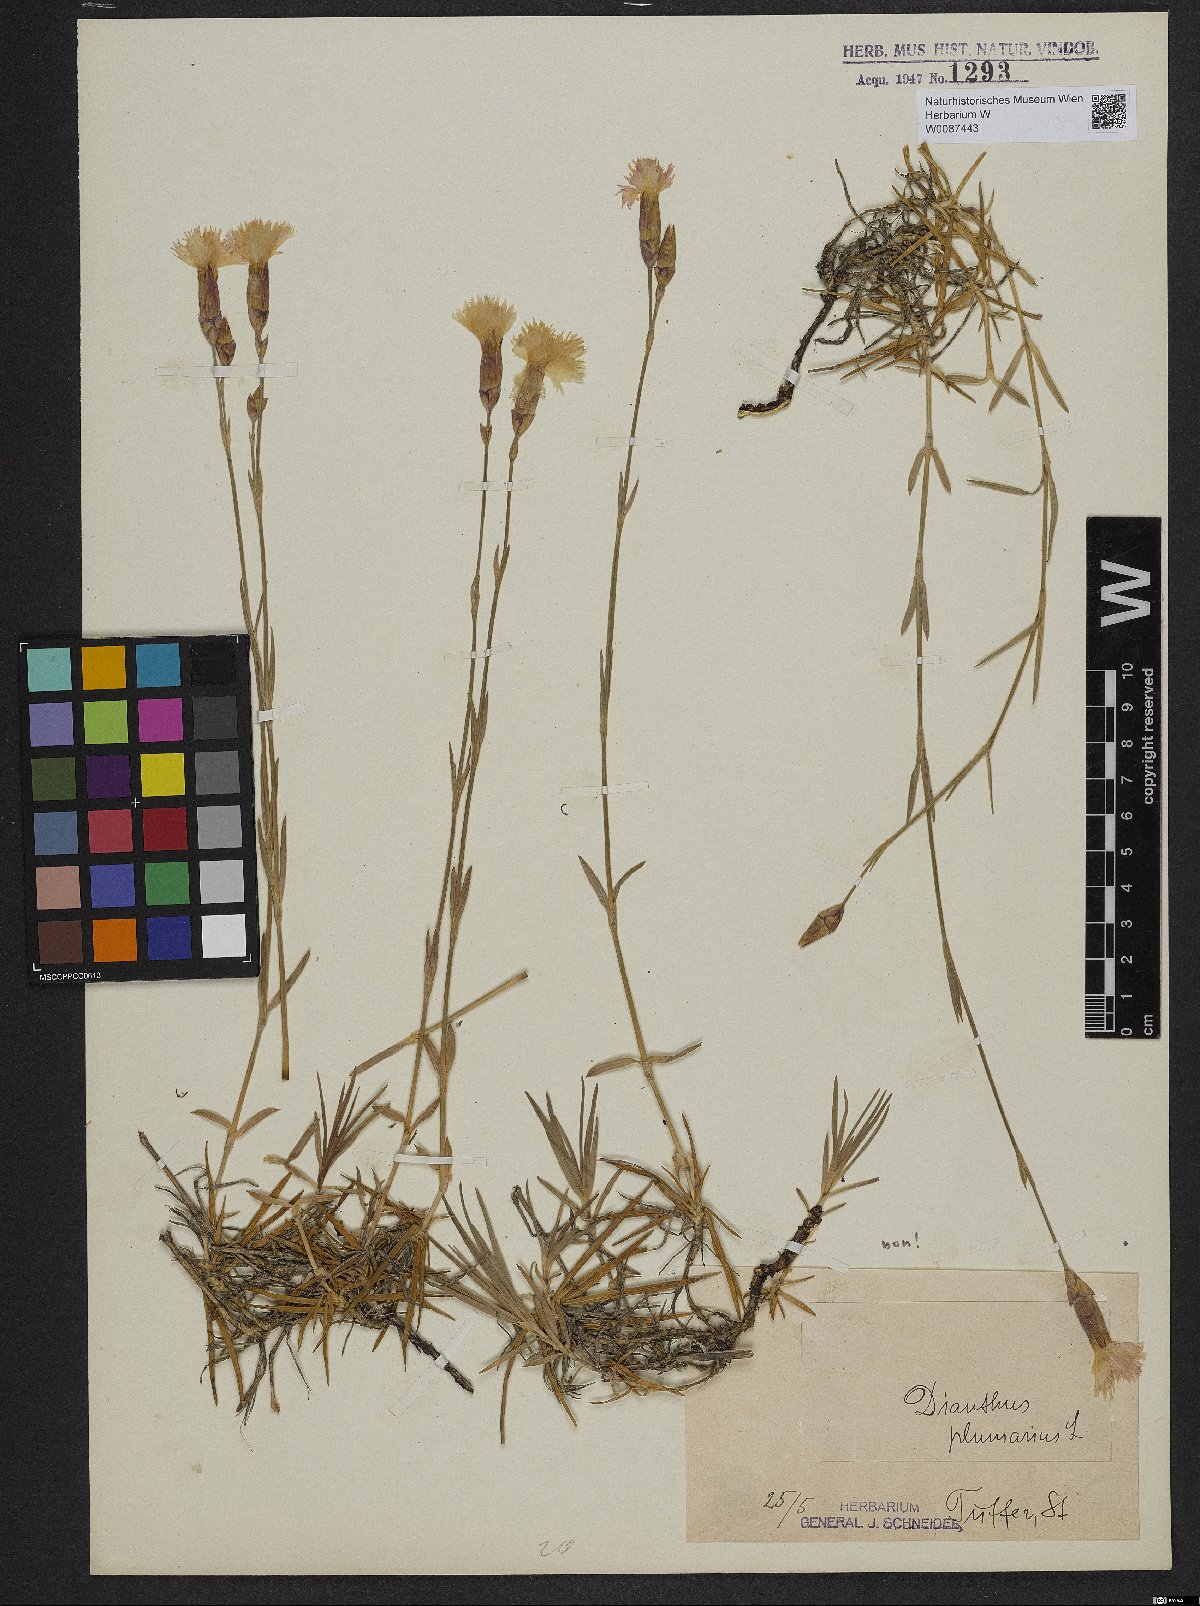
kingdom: Plantae
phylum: Tracheophyta
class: Magnoliopsida
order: Caryophyllales
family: Caryophyllaceae
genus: Dianthus
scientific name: Dianthus caryophyllus
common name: Clove pink
